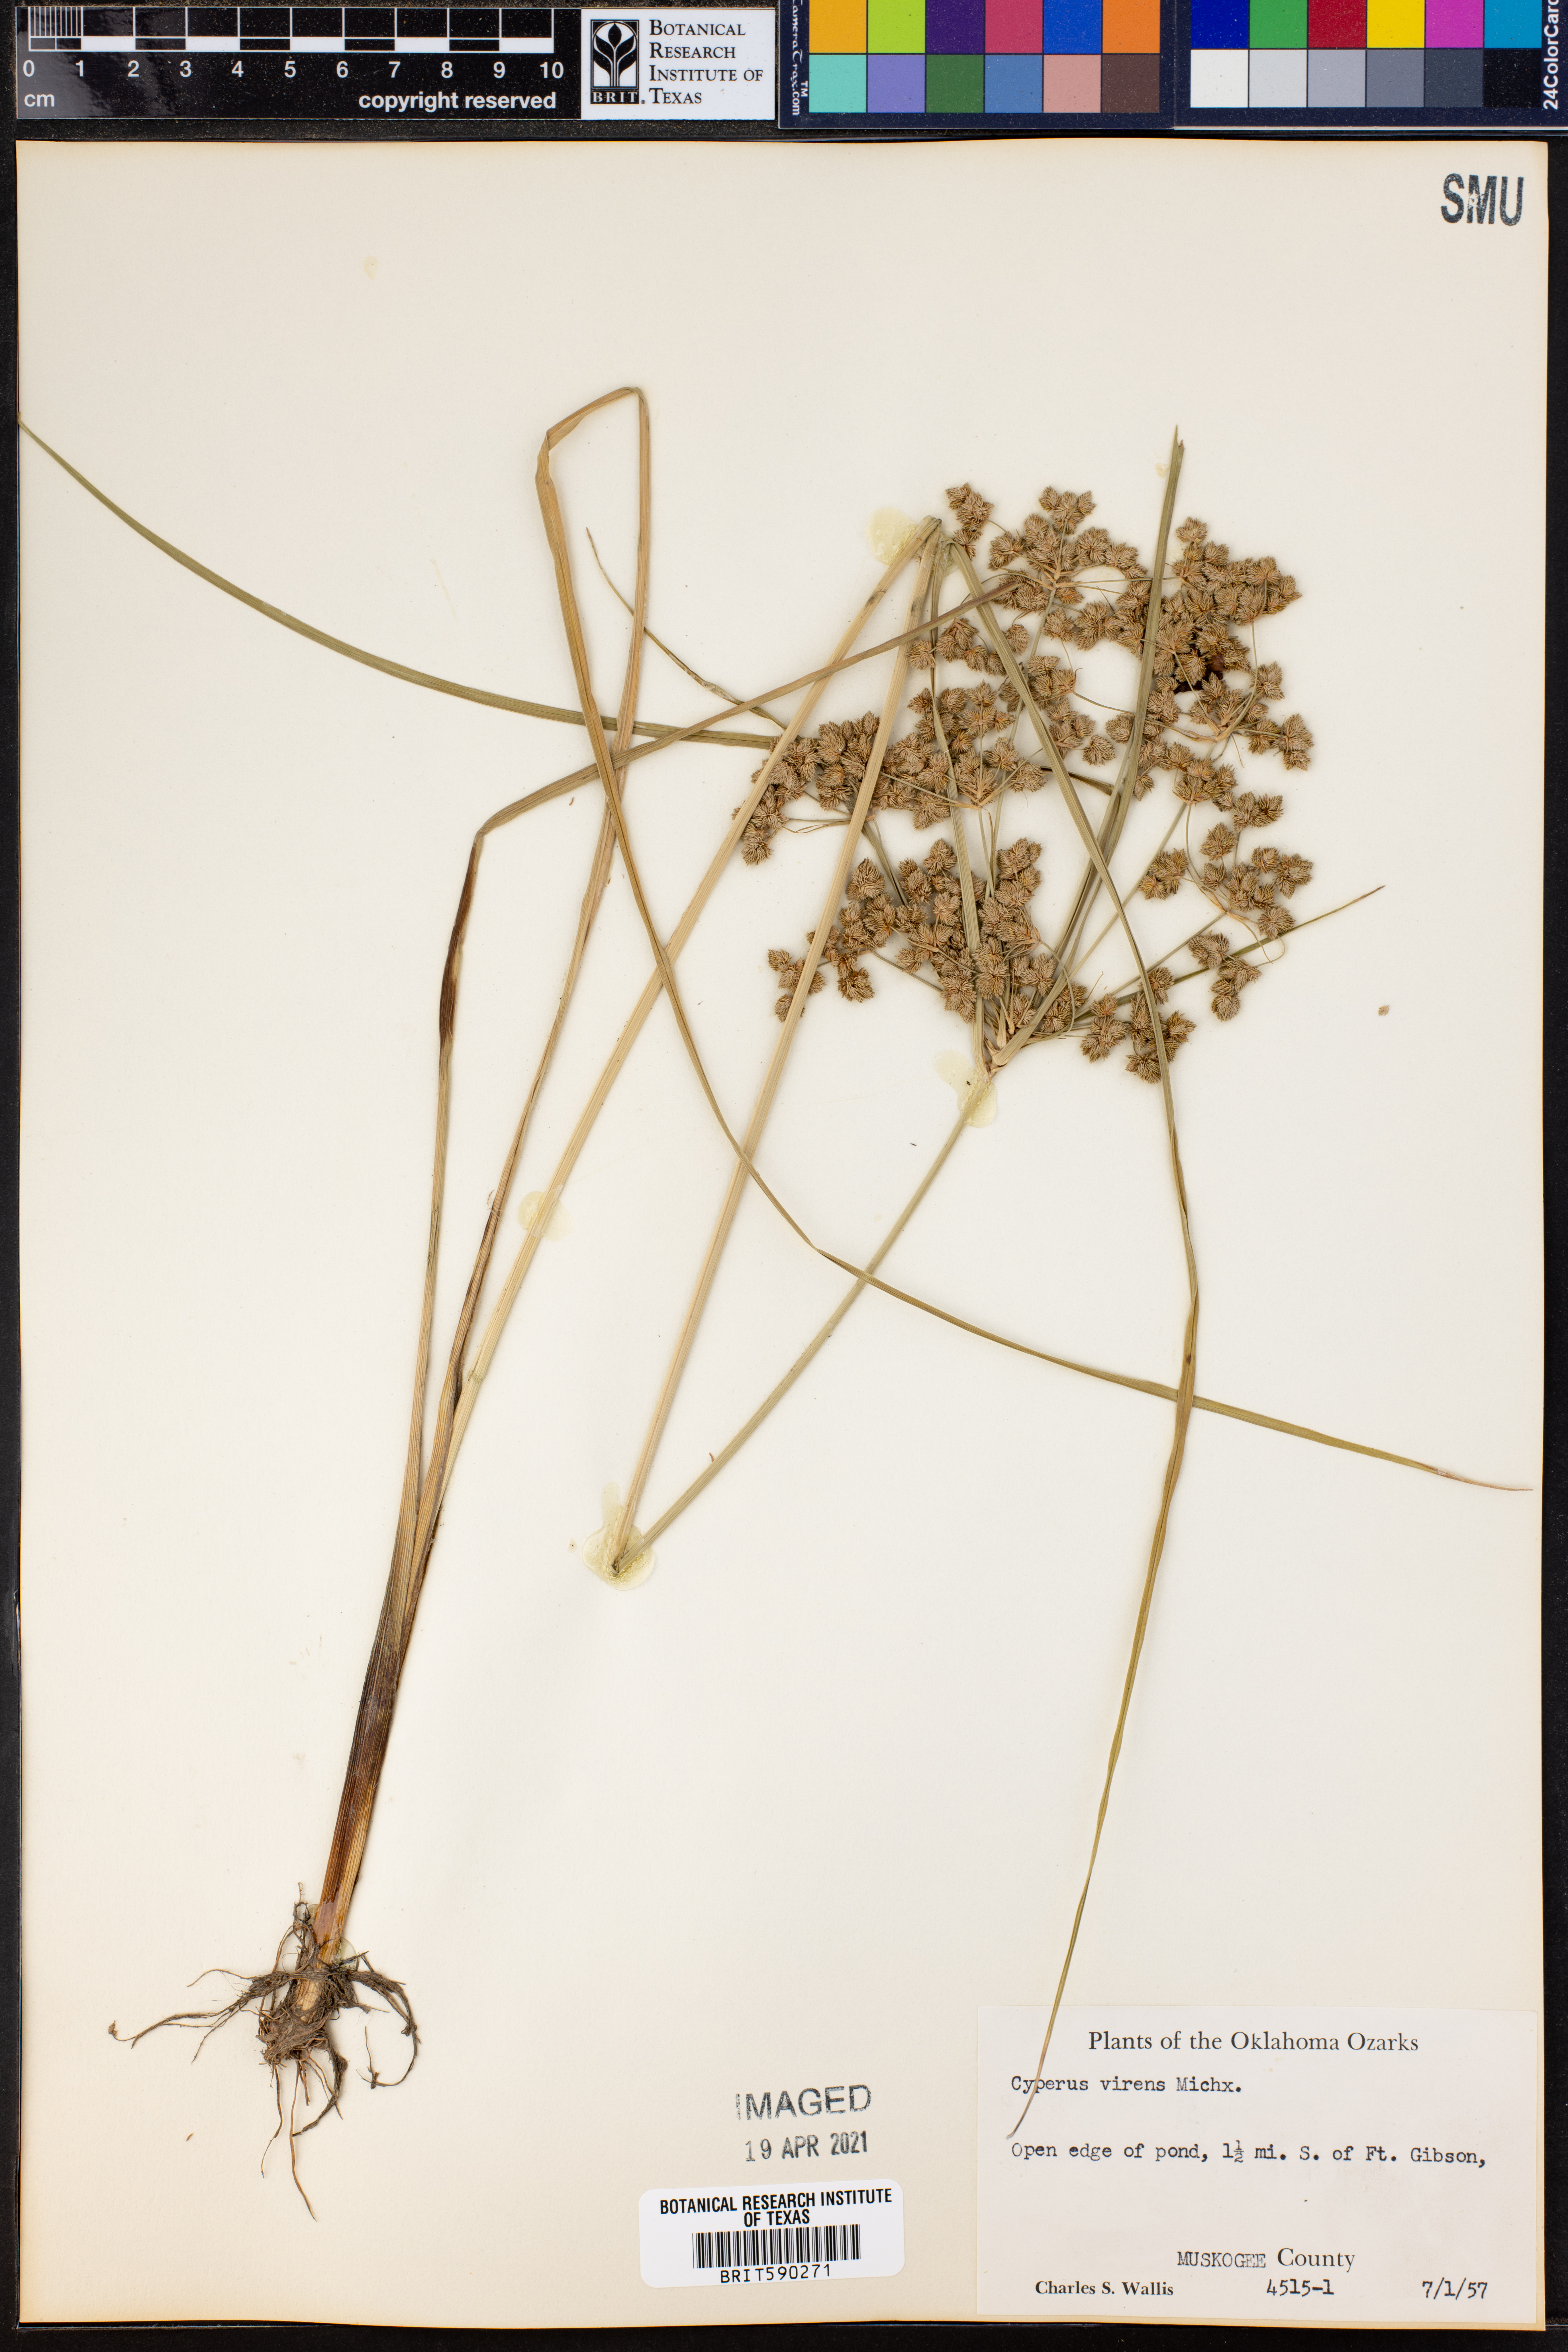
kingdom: Plantae
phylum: Tracheophyta
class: Liliopsida
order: Poales
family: Cyperaceae
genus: Cyperus
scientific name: Cyperus virens
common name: Green flatsedge
